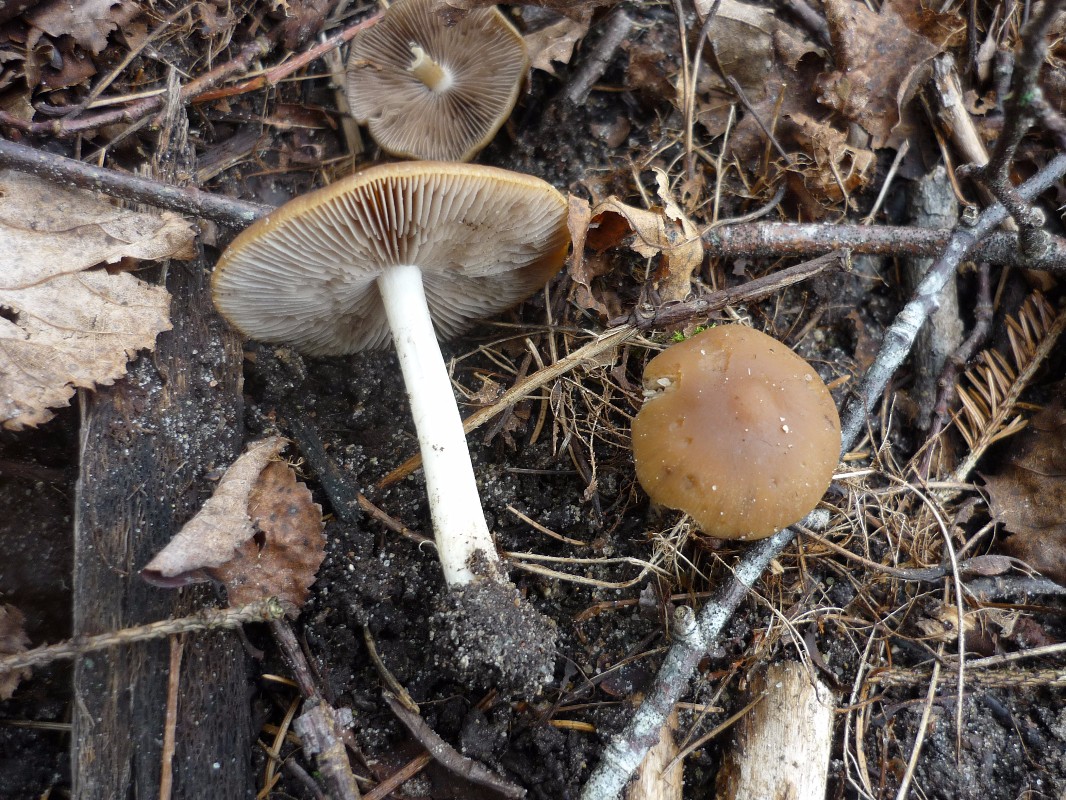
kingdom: Fungi
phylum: Basidiomycota
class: Agaricomycetes
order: Agaricales
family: Psathyrellaceae
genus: Psathyrella
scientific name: Psathyrella spadiceogrisea
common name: gråbrun mørkhat
